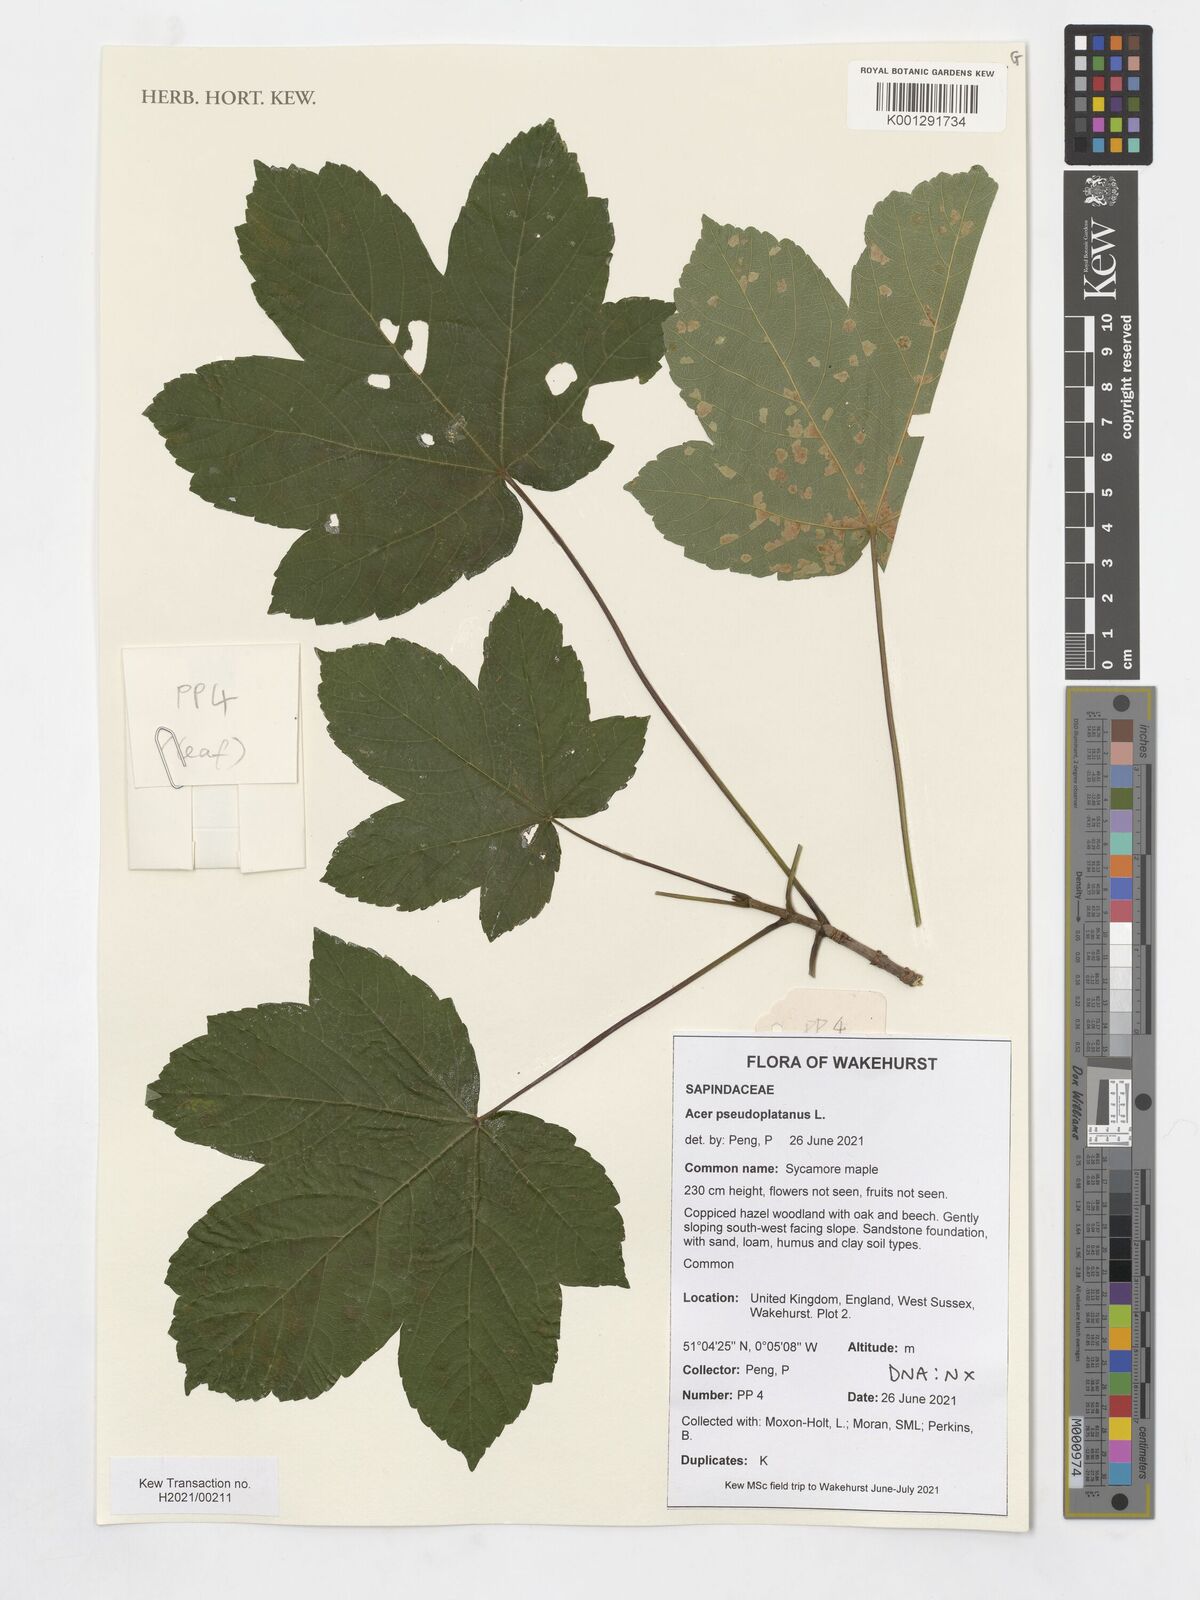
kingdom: Plantae
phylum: Tracheophyta
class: Magnoliopsida
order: Sapindales
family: Sapindaceae
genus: Acer
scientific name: Acer pseudoplatanus
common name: Sycamore
